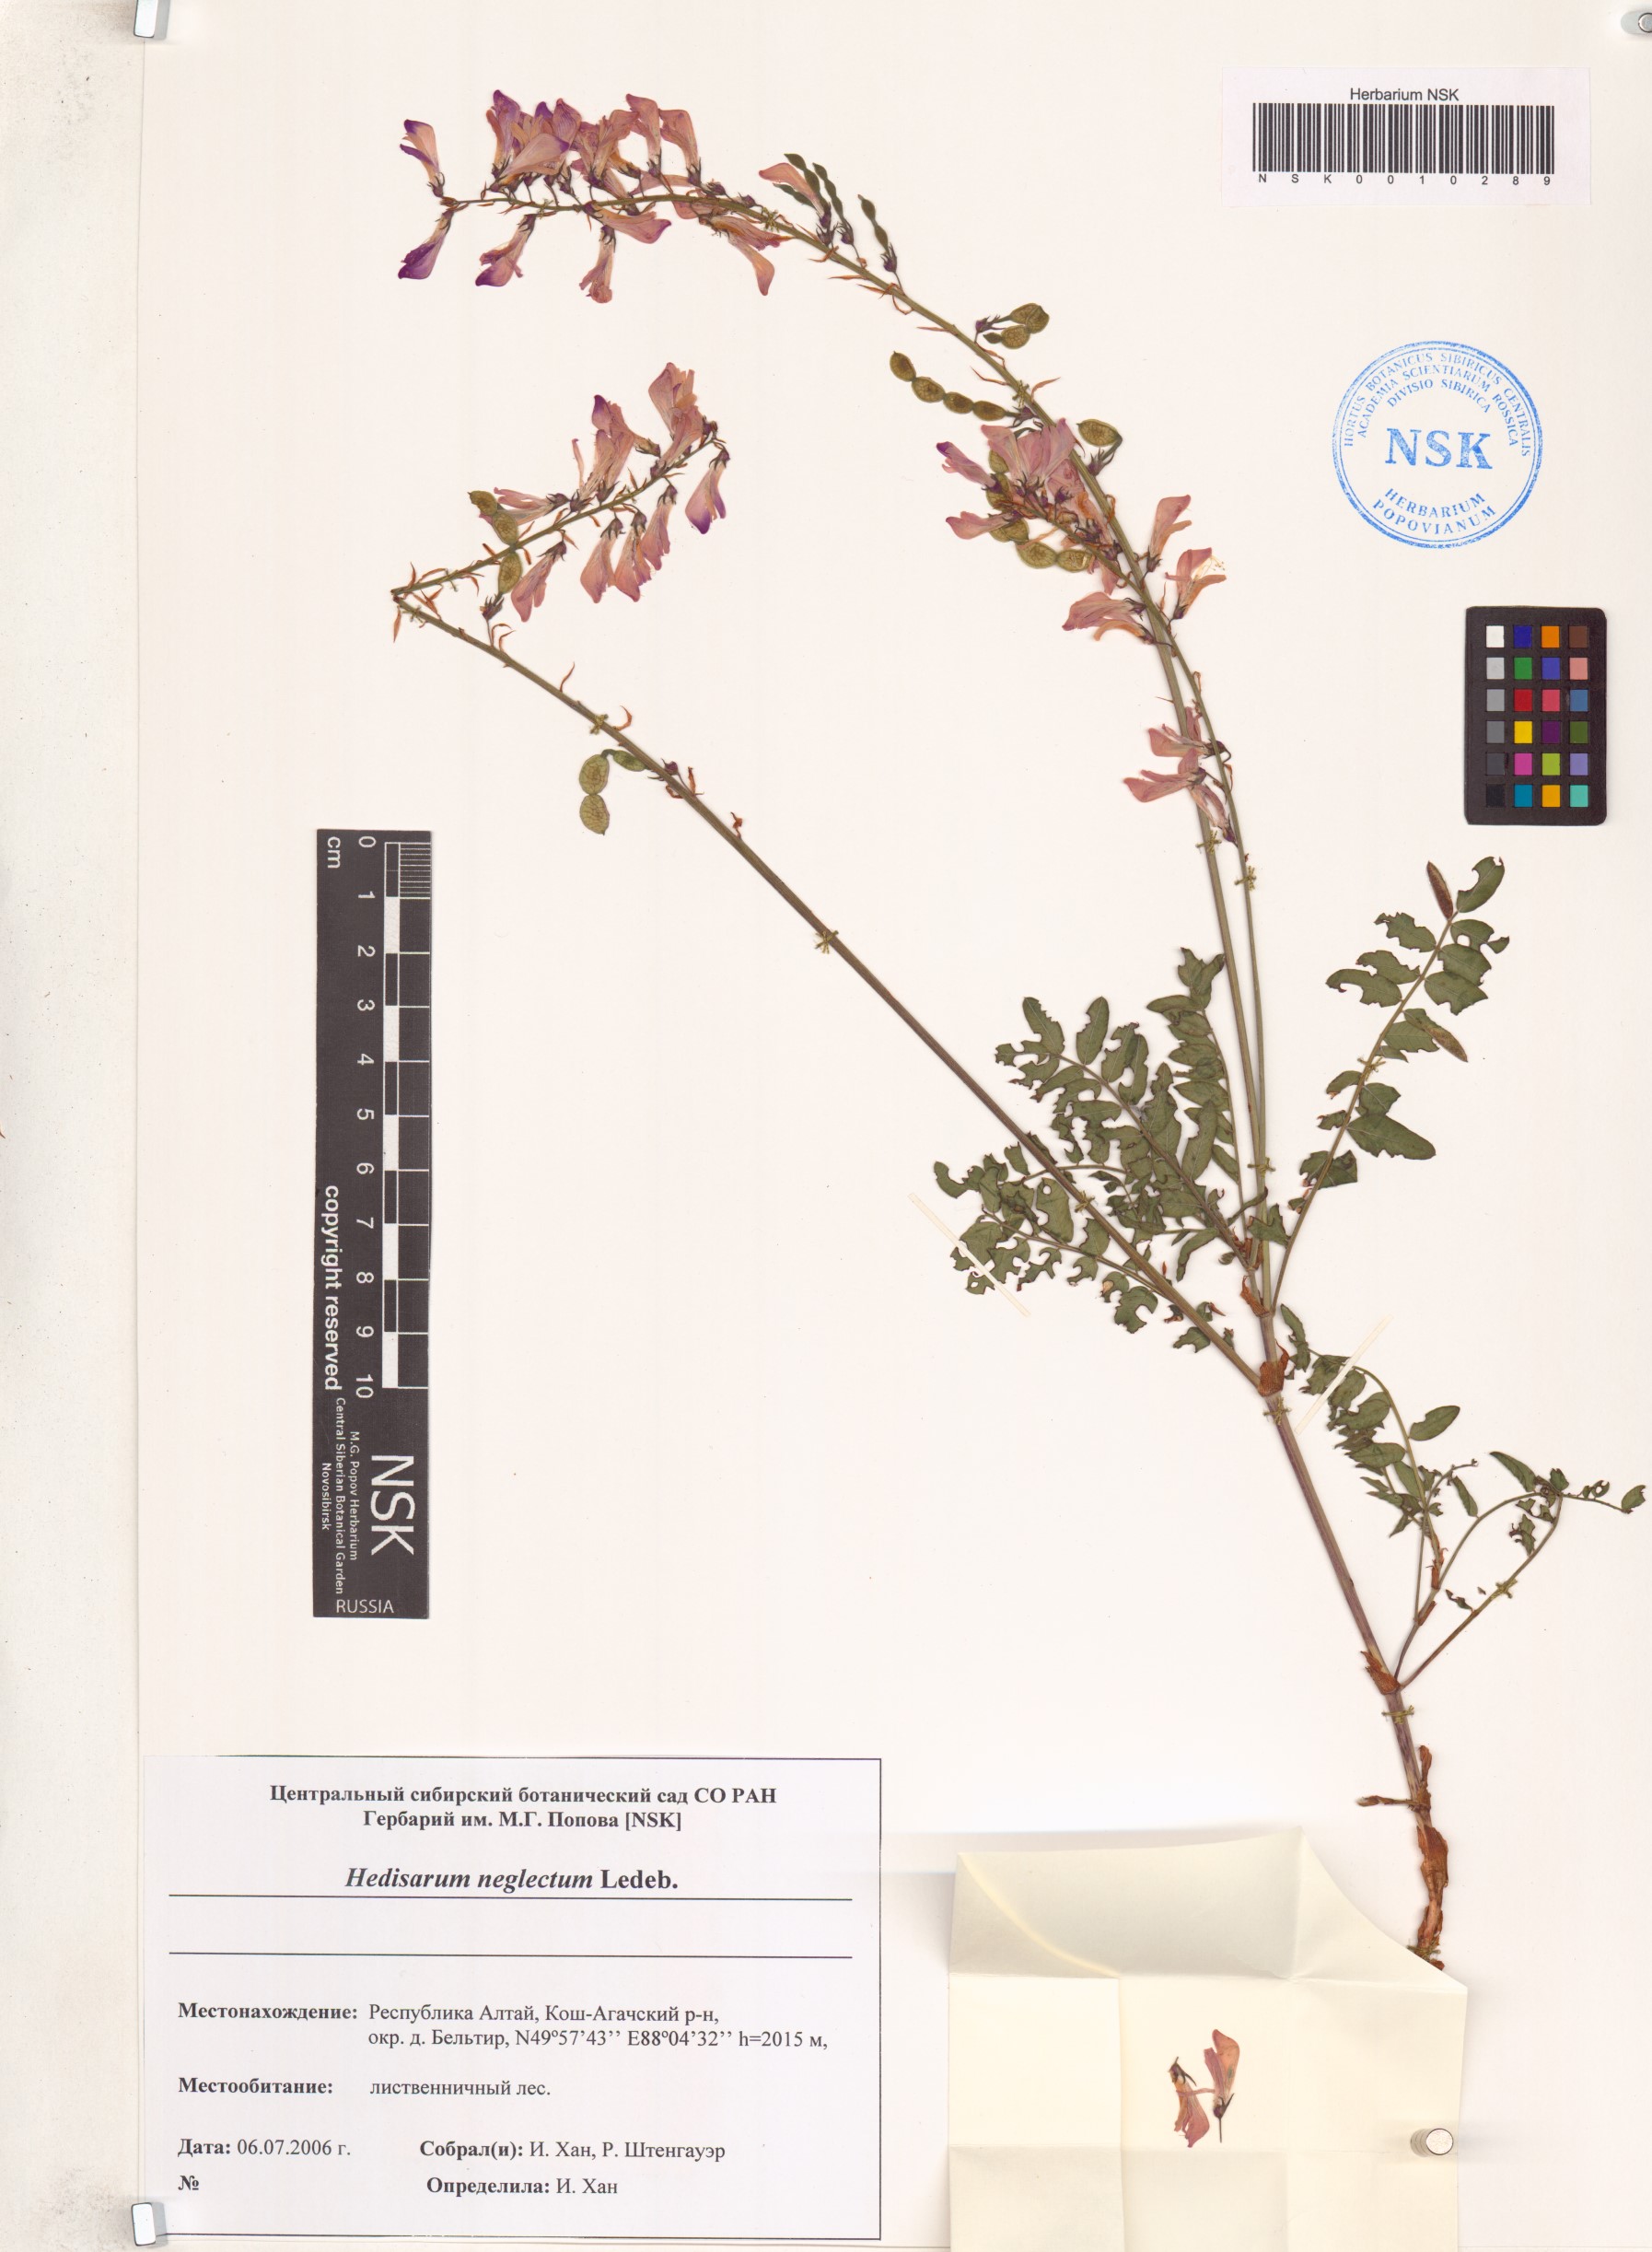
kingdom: Plantae
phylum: Tracheophyta
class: Magnoliopsida
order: Fabales
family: Fabaceae
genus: Hedysarum
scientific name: Hedysarum neglectum
